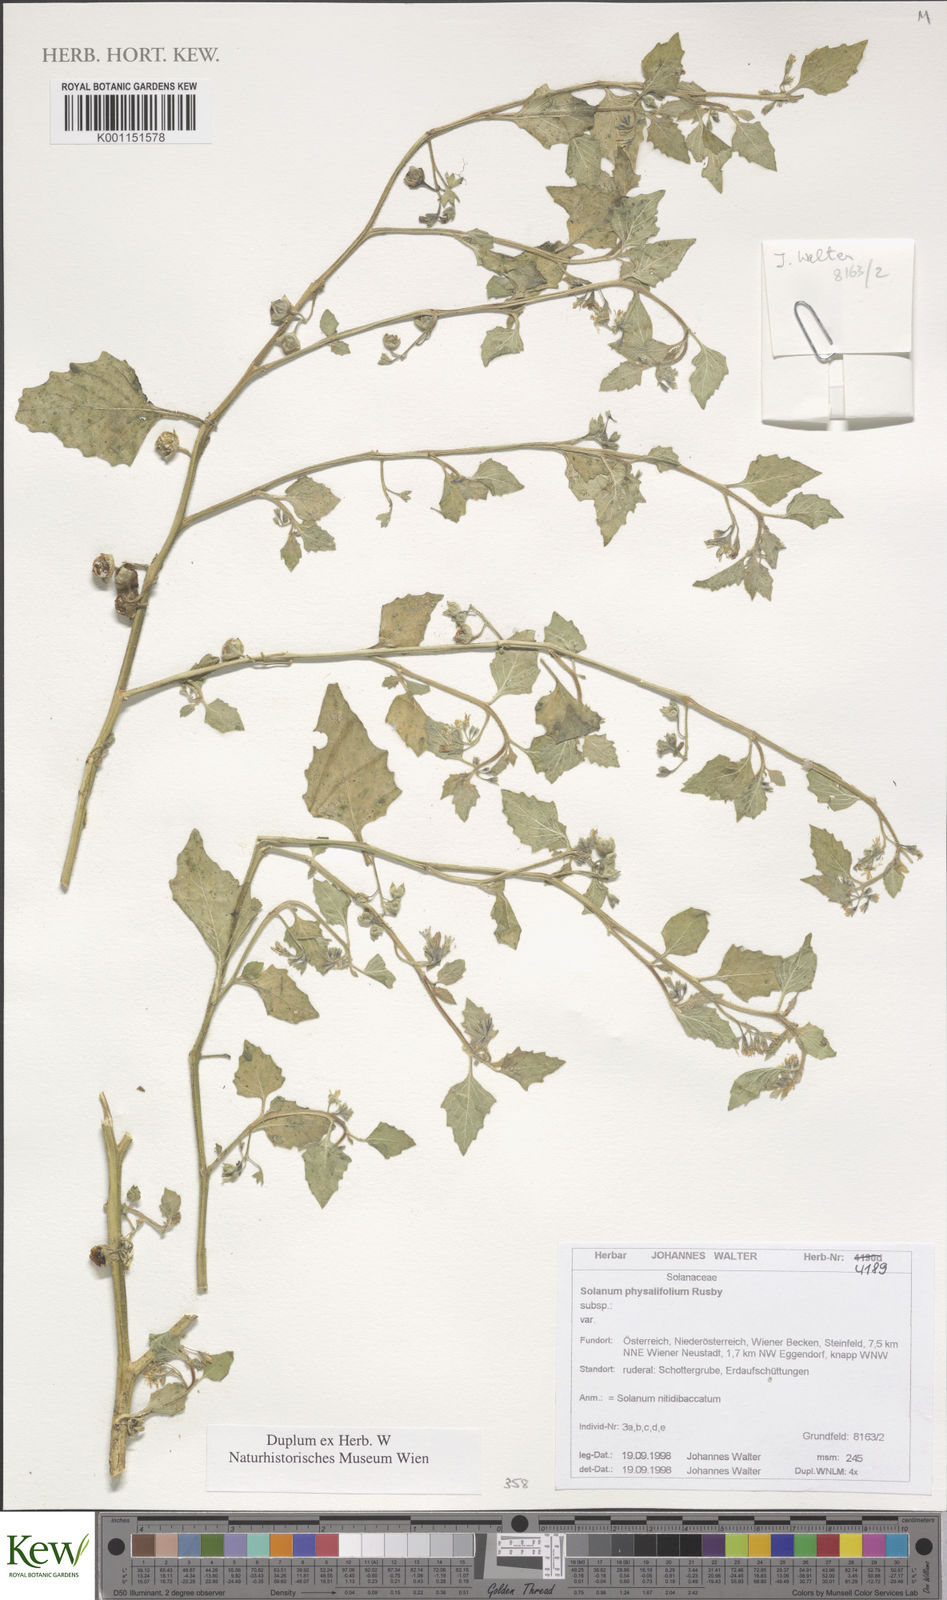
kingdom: Plantae
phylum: Tracheophyta
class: Magnoliopsida
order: Solanales
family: Solanaceae
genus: Solanum
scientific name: Solanum pilcomayense
